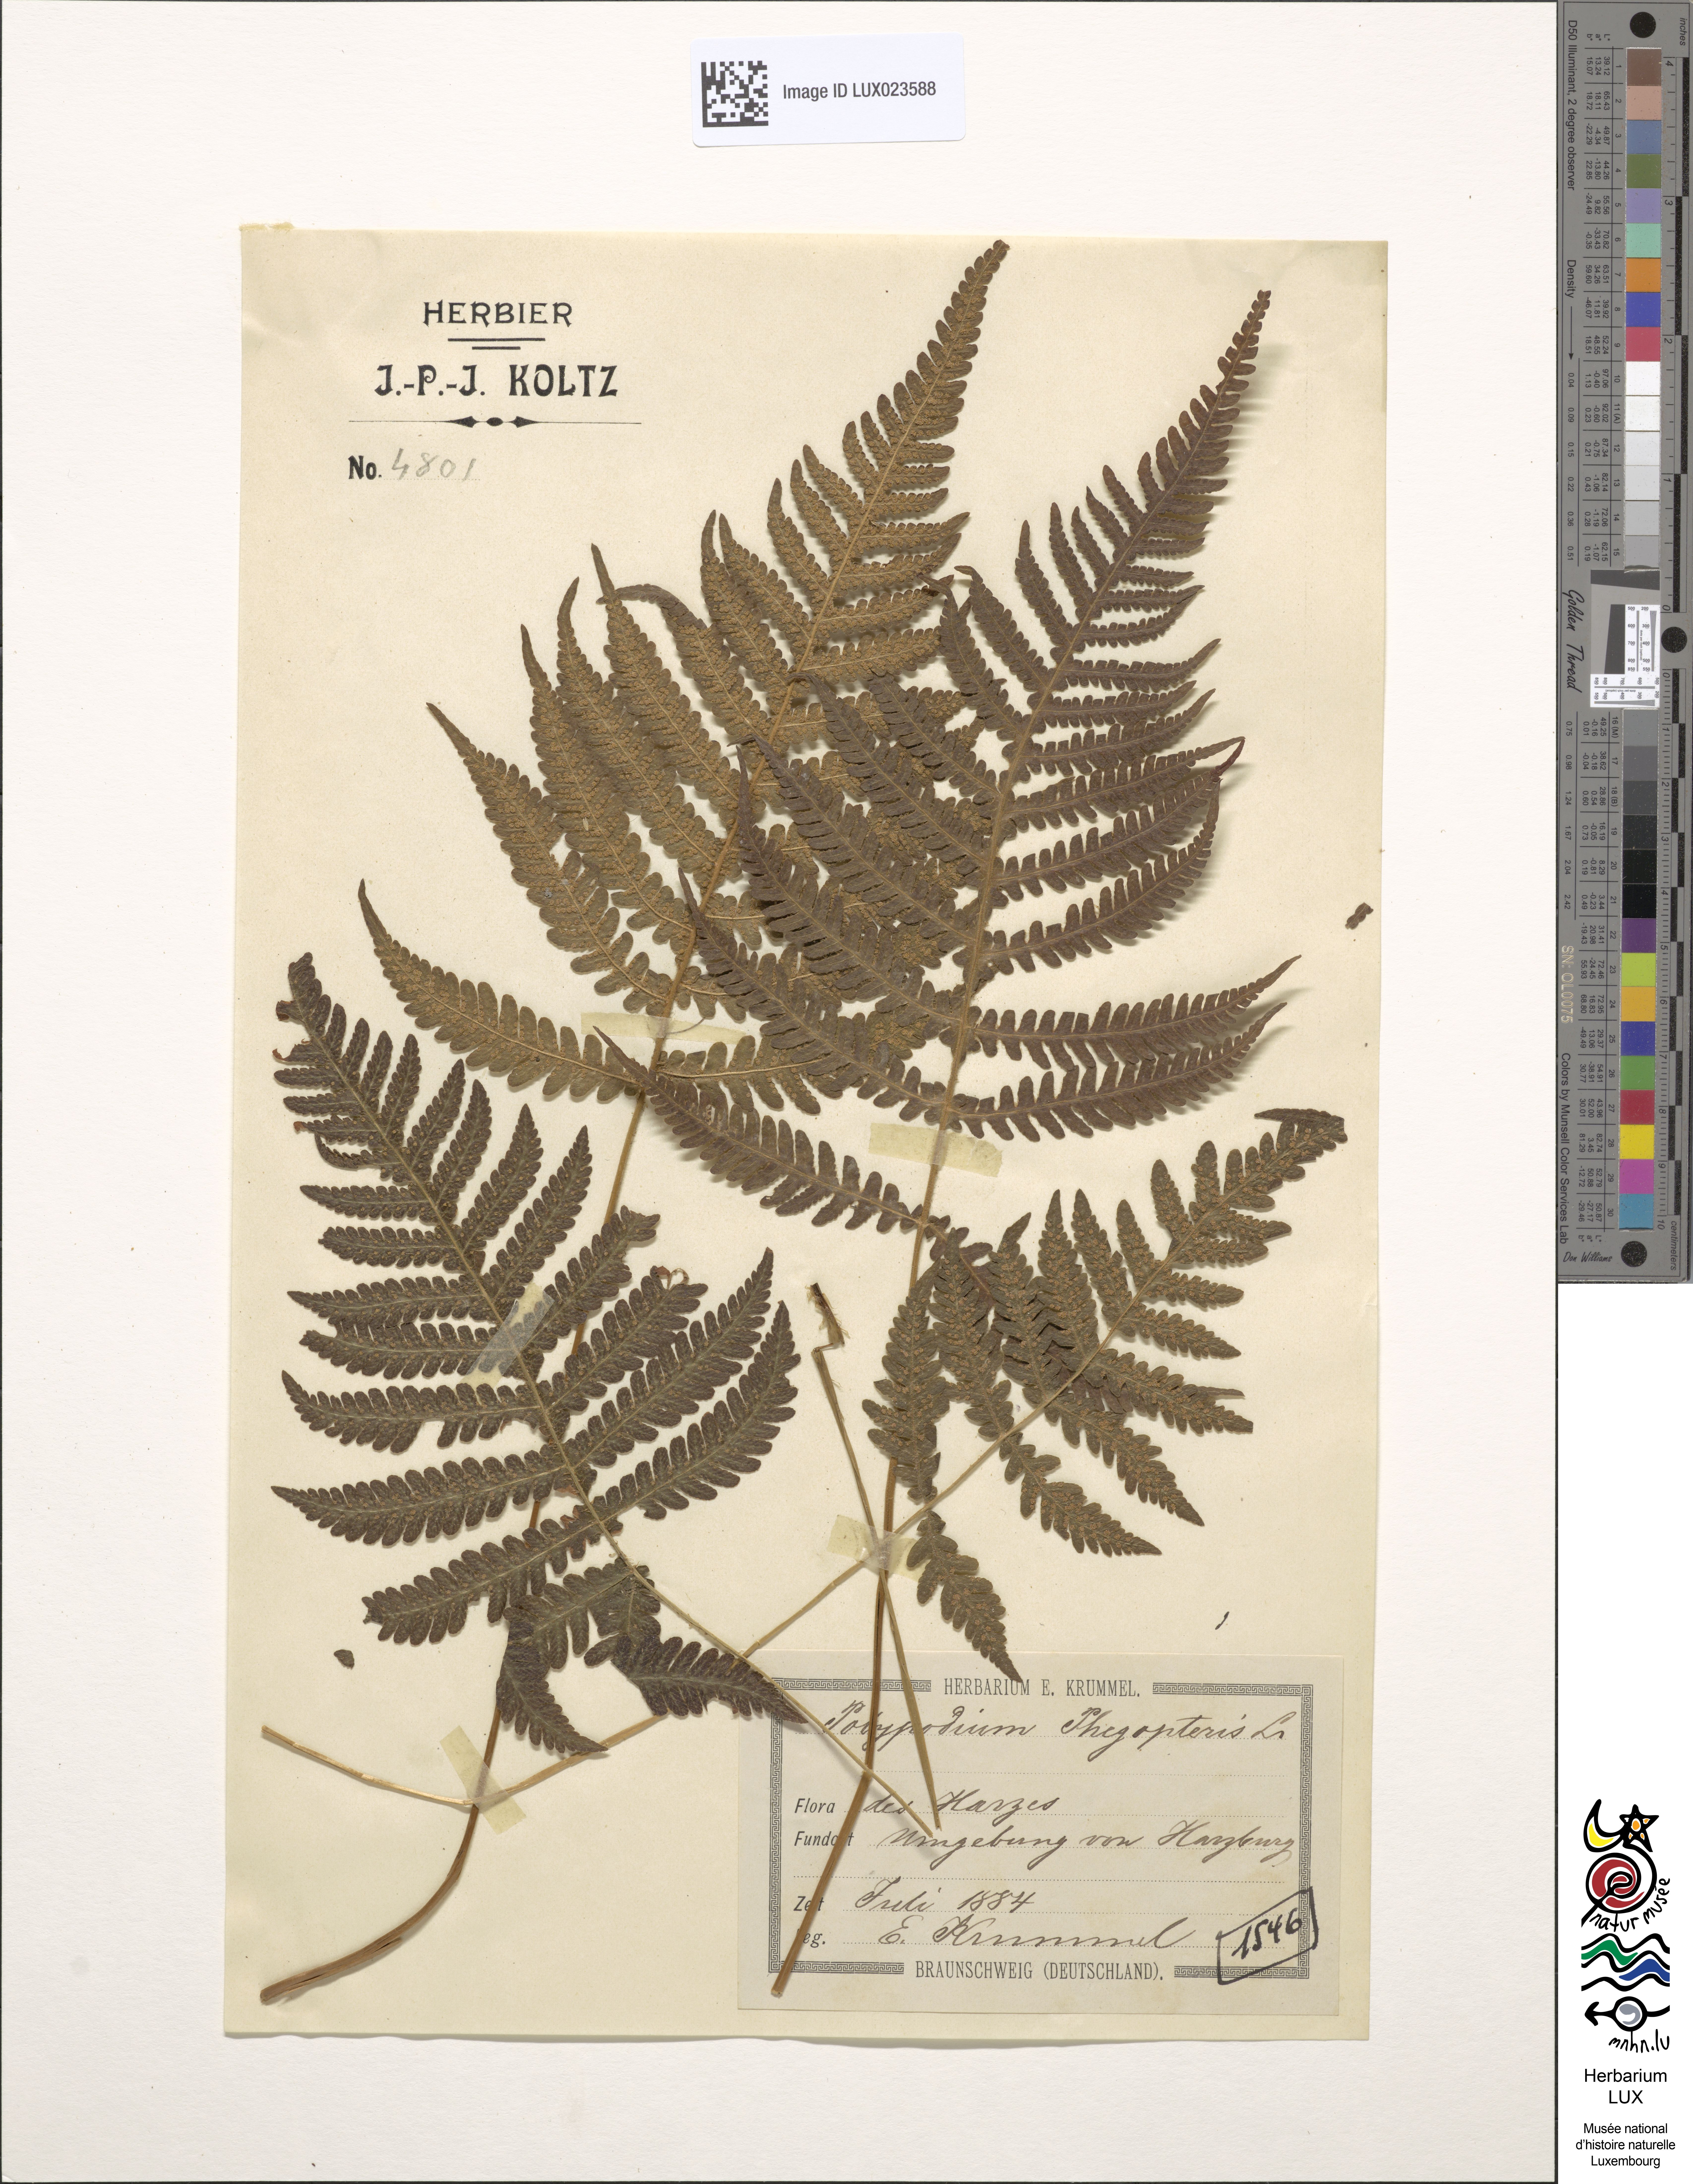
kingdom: Plantae
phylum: Tracheophyta
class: Polypodiopsida
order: Polypodiales
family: Thelypteridaceae
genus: Phegopteris
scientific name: Phegopteris connectilis
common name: Beech fern
